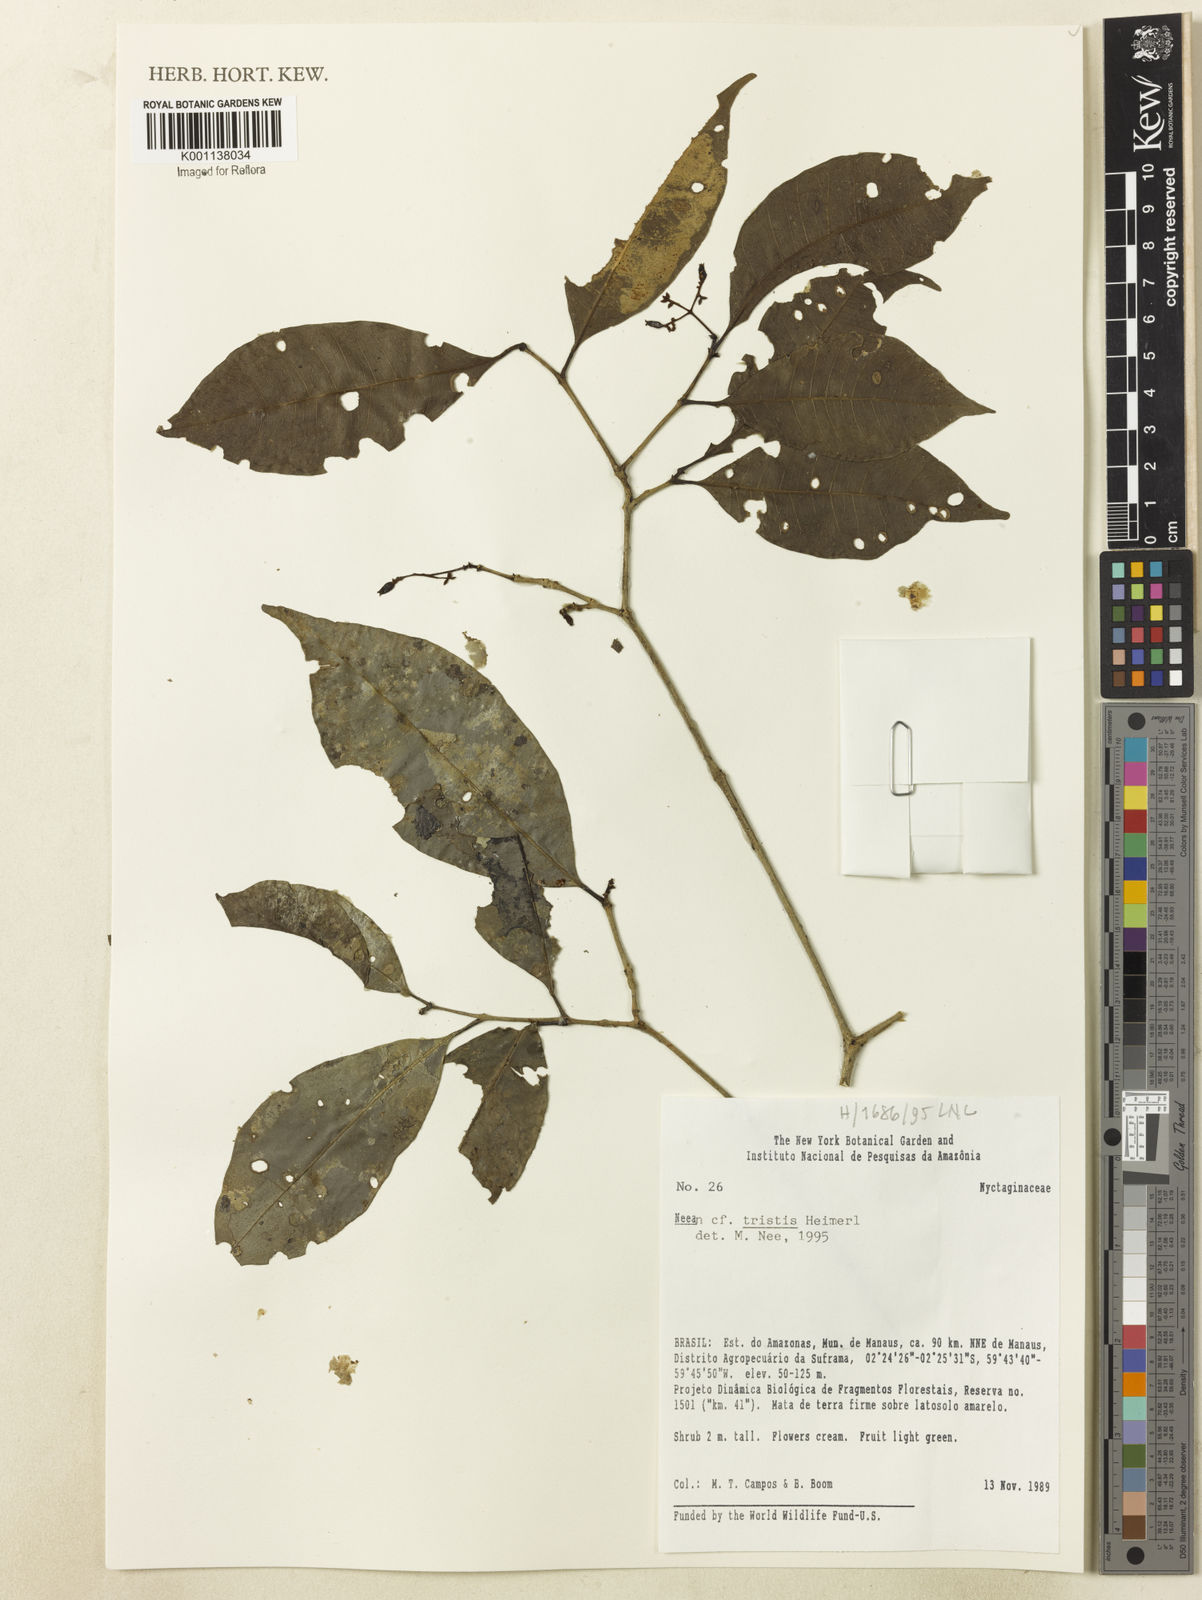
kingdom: Plantae
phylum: Tracheophyta
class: Magnoliopsida
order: Caryophyllales
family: Nyctaginaceae
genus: Neea
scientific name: Neea tristis
